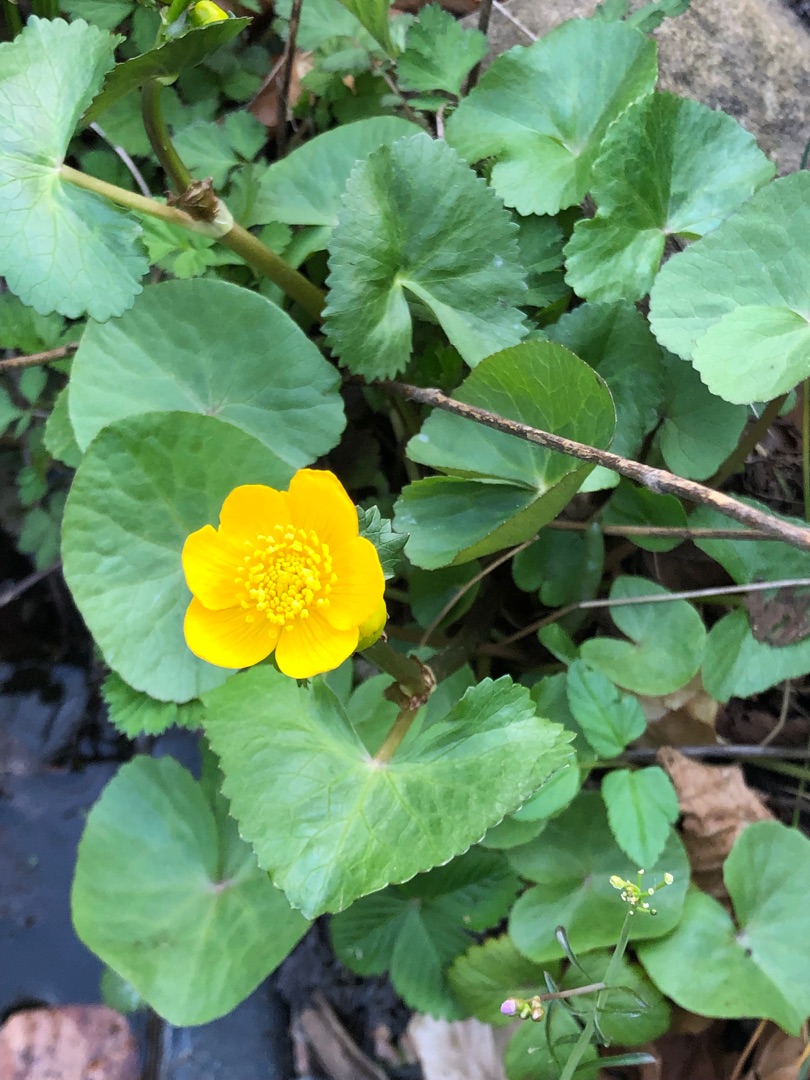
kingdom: Plantae
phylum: Tracheophyta
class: Magnoliopsida
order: Ranunculales
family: Ranunculaceae
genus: Caltha
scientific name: Caltha palustris
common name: Eng-kabbeleje
